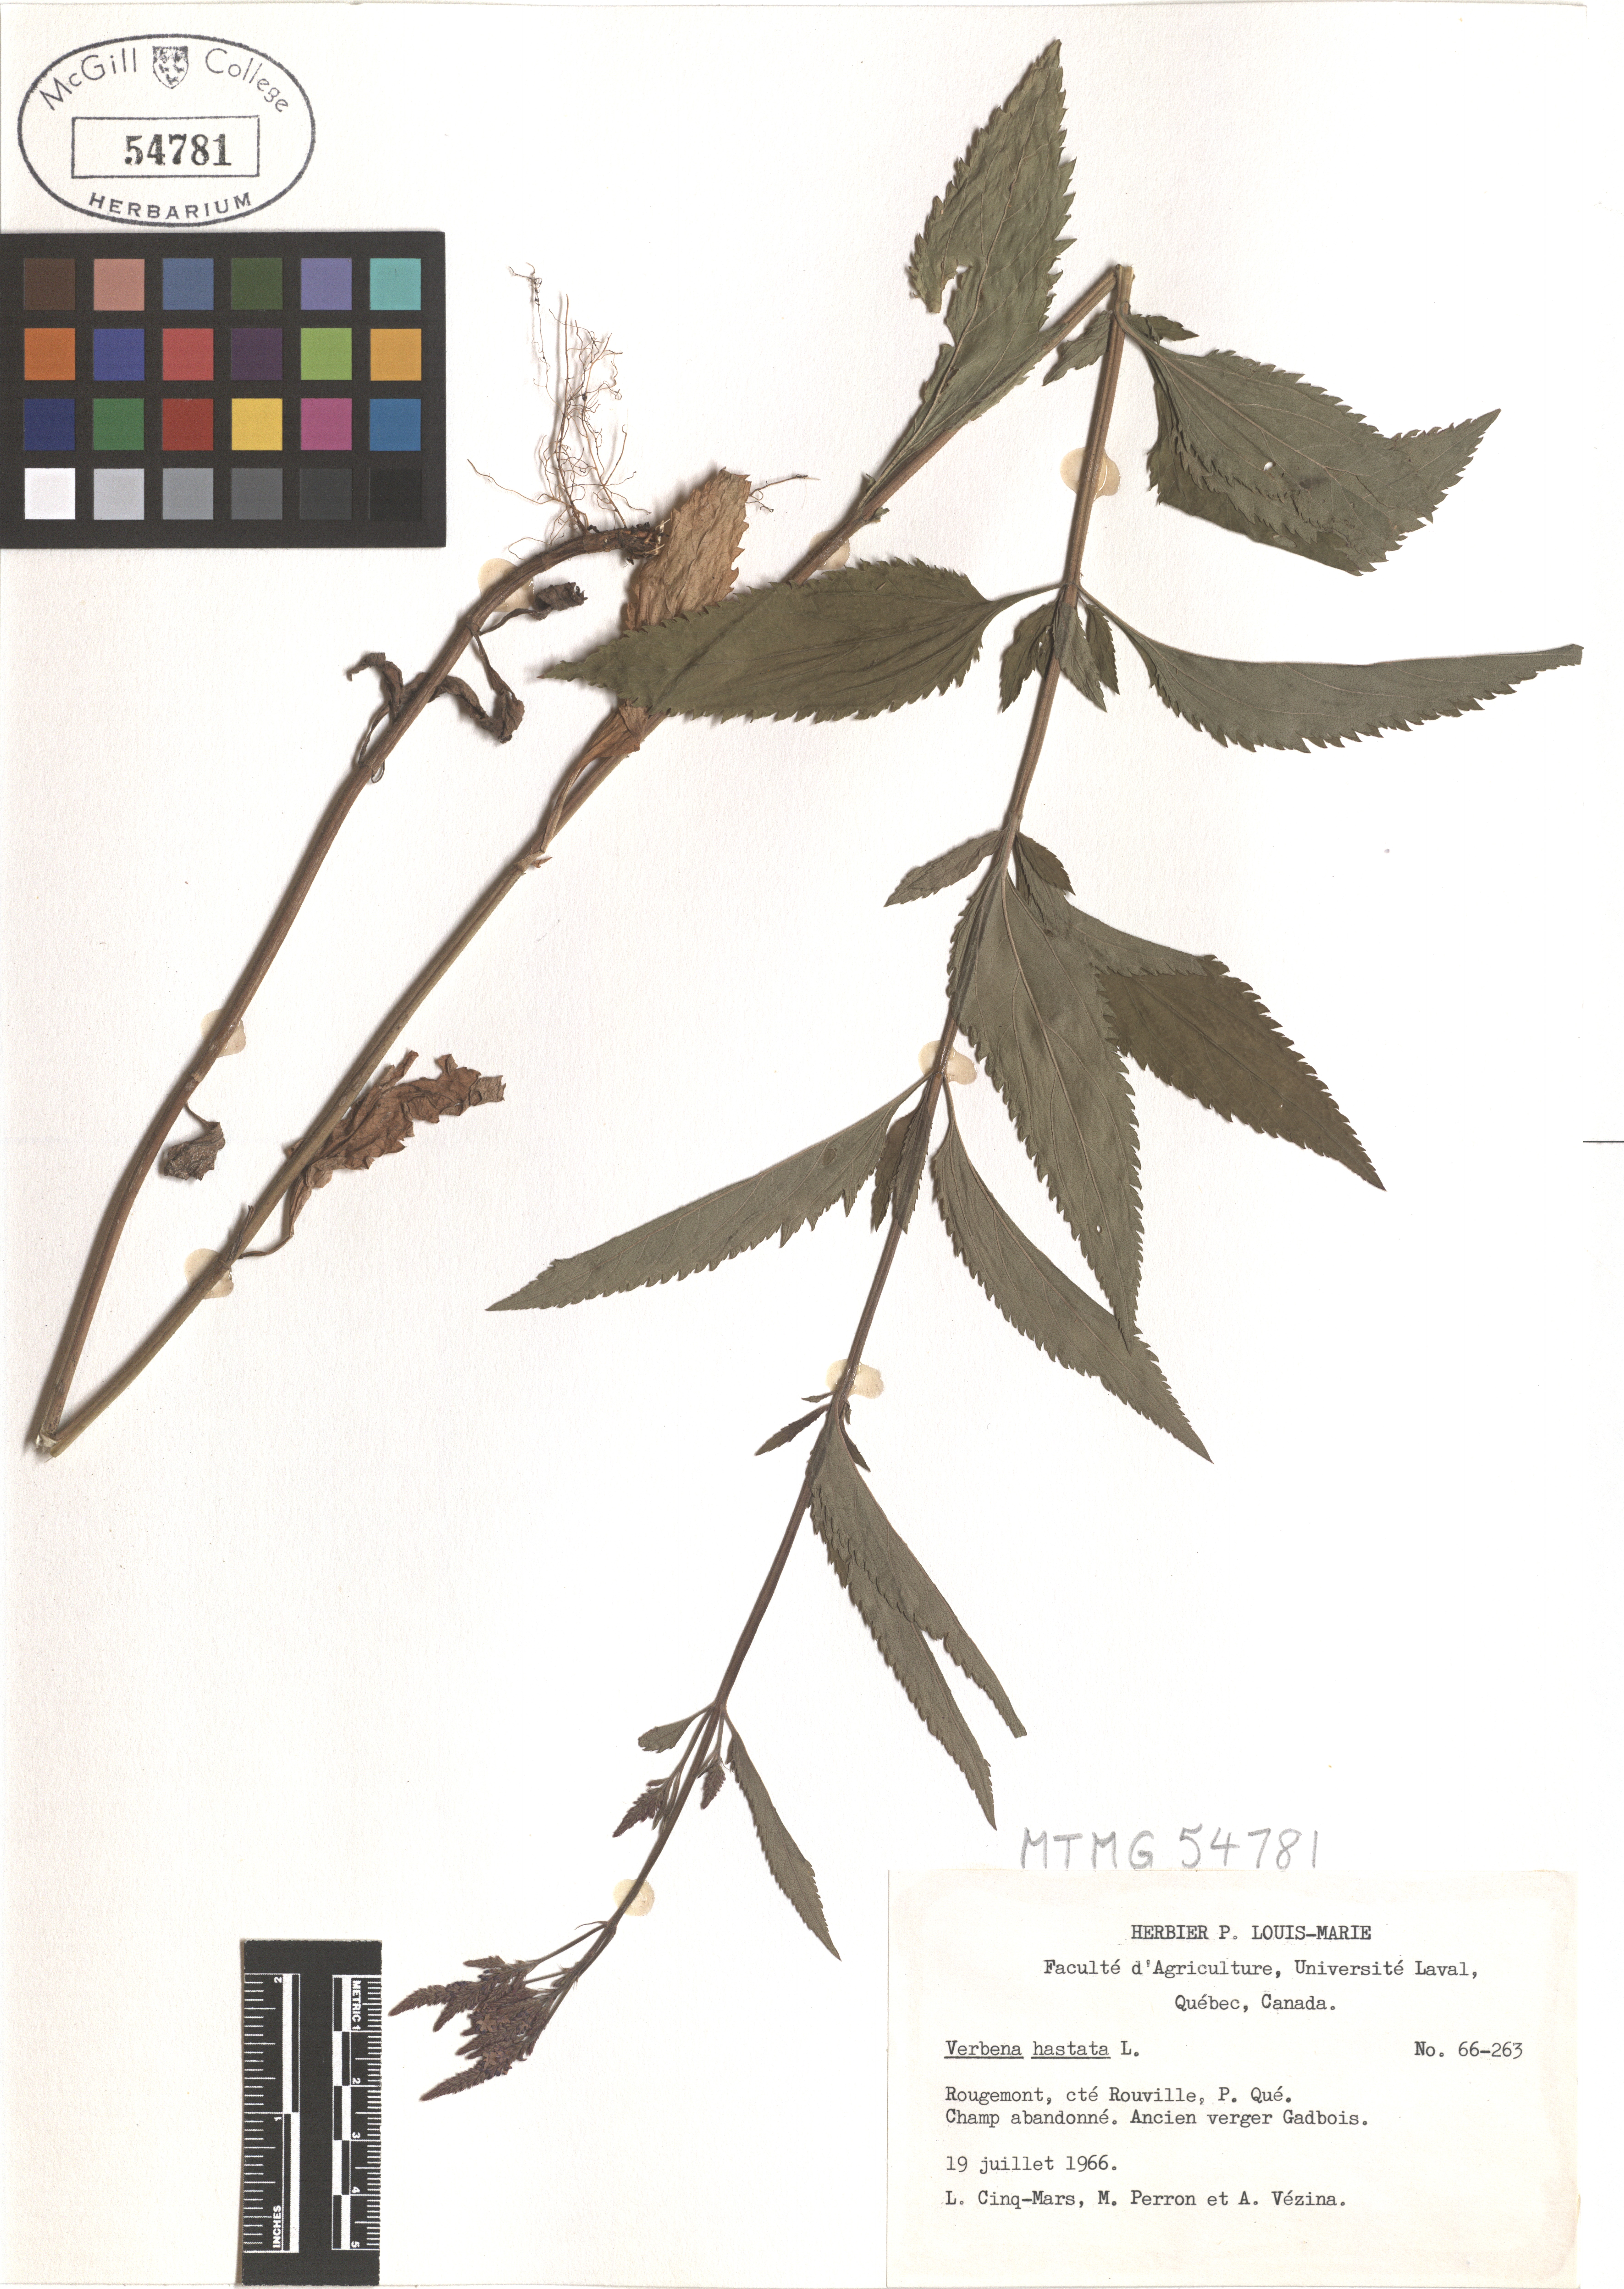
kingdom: Plantae
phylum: Tracheophyta
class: Magnoliopsida
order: Lamiales
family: Verbenaceae
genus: Verbena
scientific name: Verbena hastata
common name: American blue vervain
